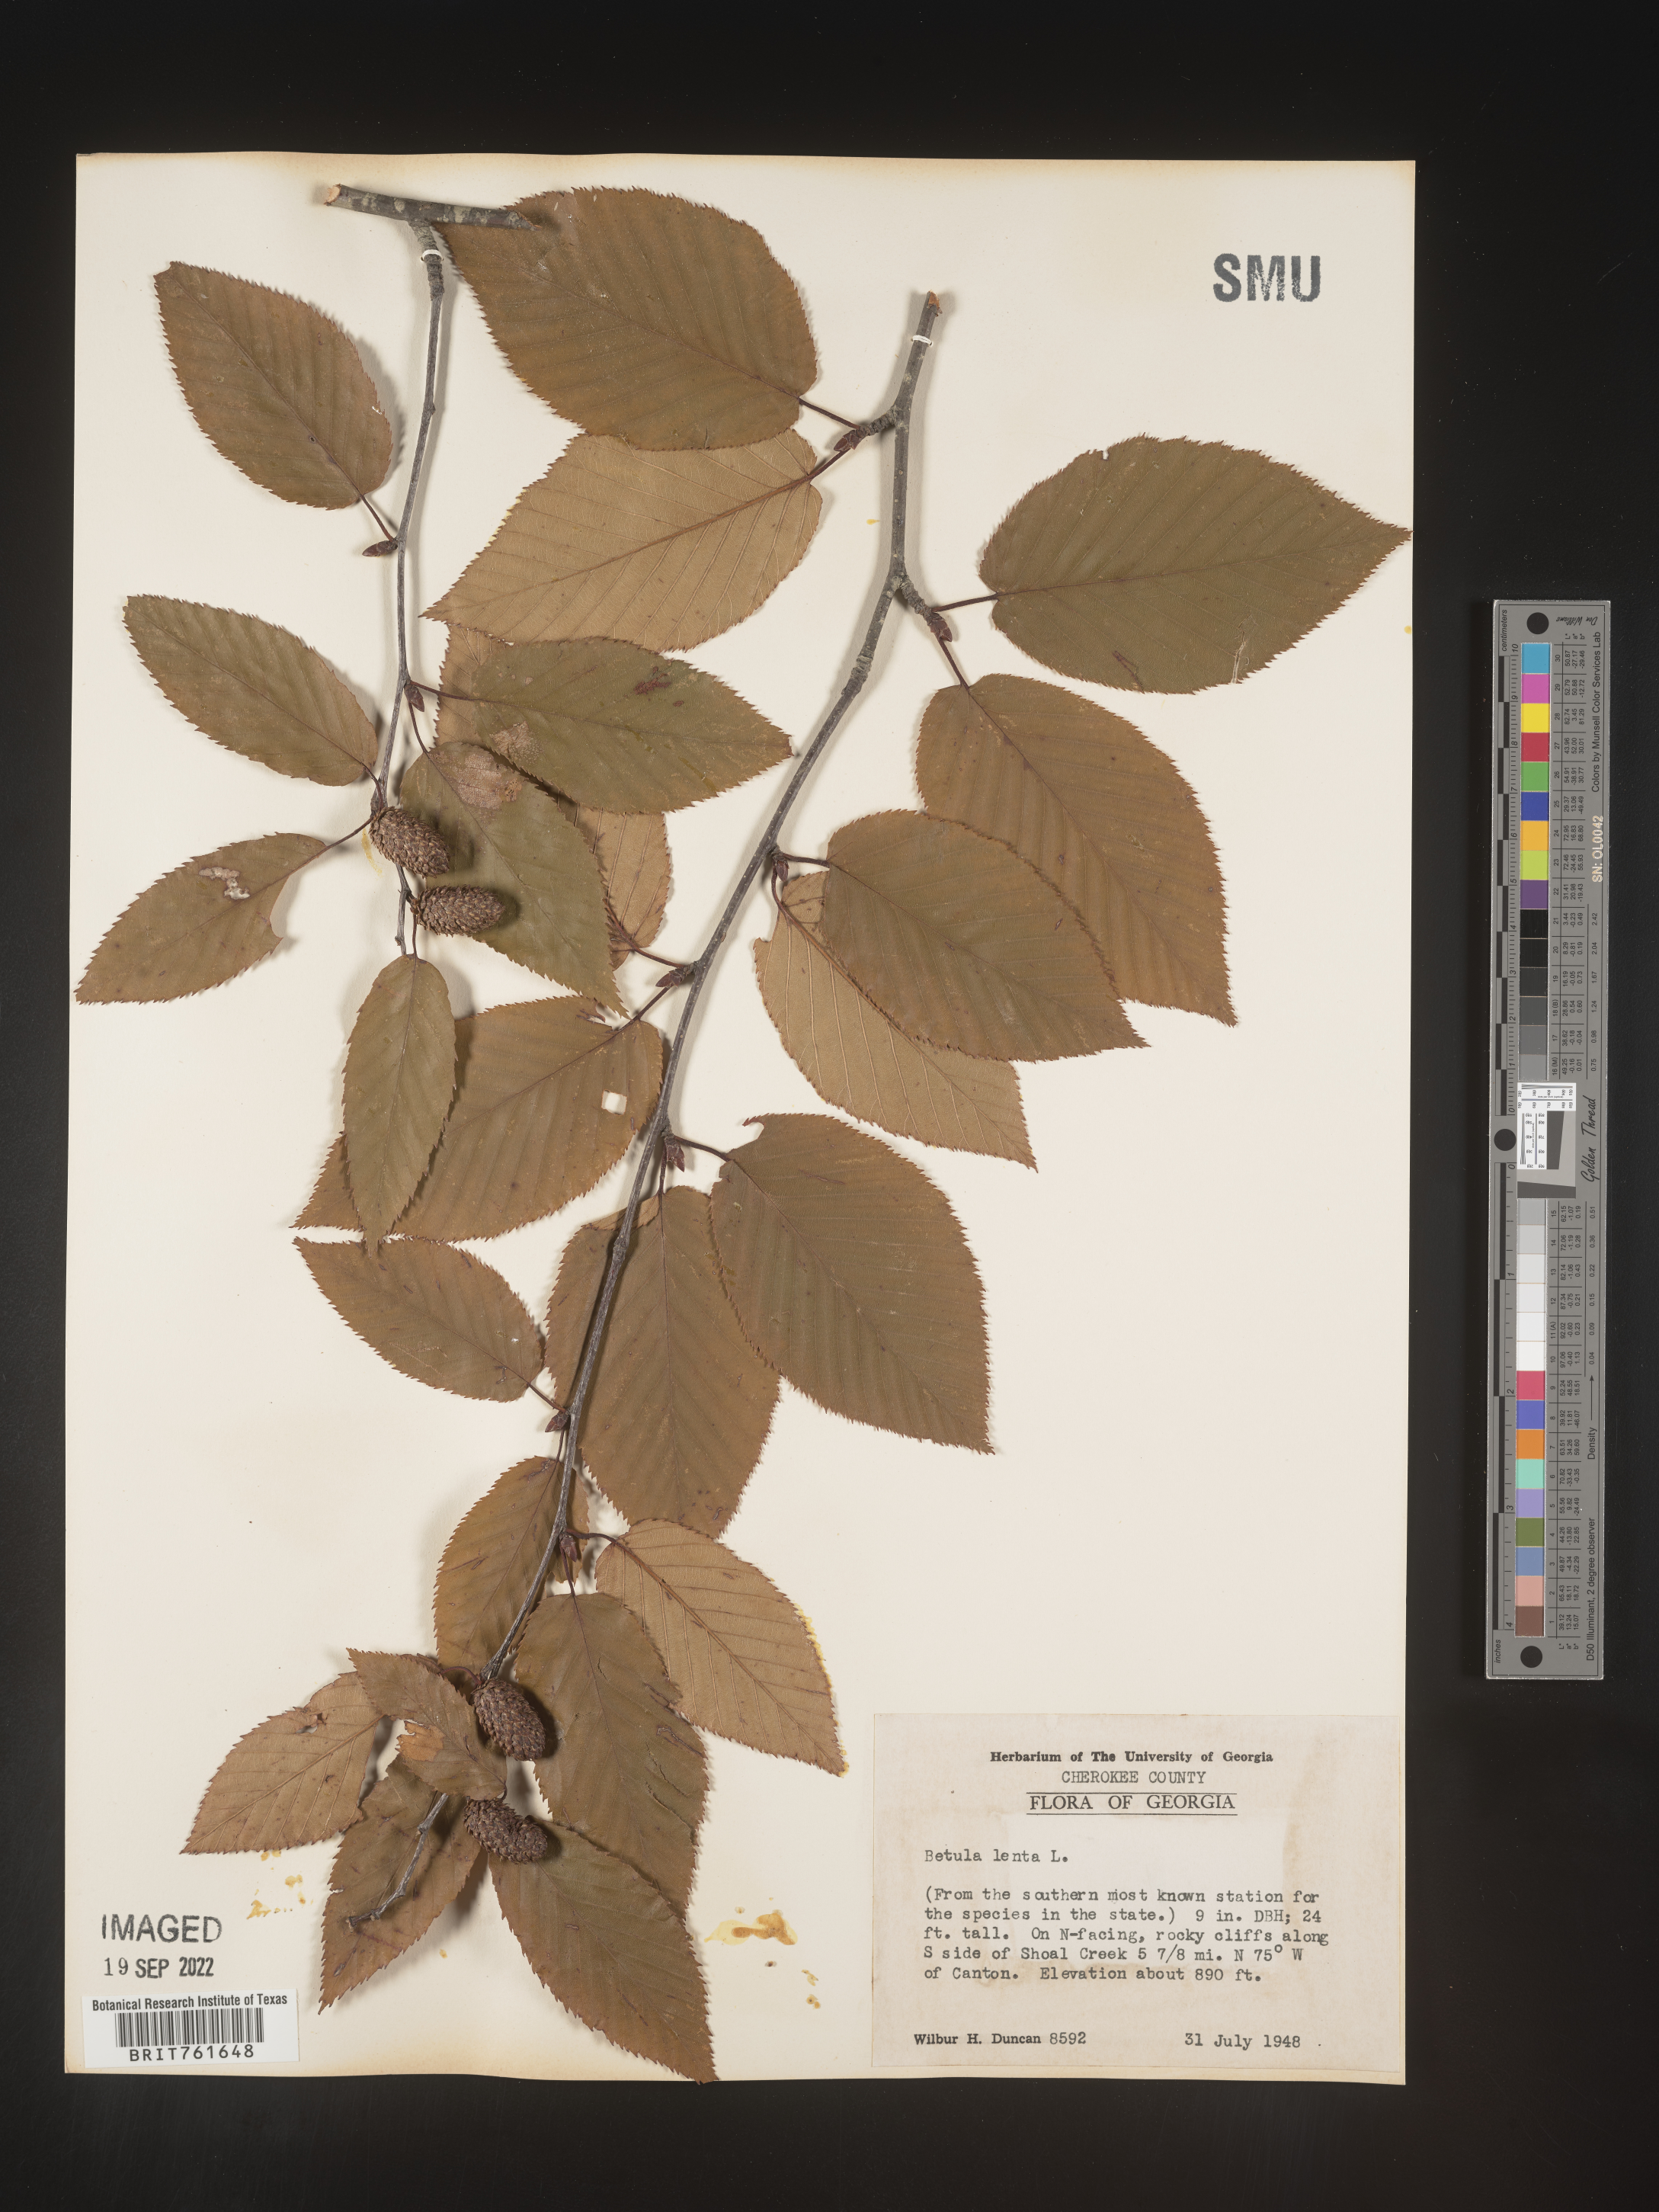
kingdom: Plantae
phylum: Tracheophyta
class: Magnoliopsida
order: Fagales
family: Betulaceae
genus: Betula
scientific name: Betula lenta
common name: Black birch
